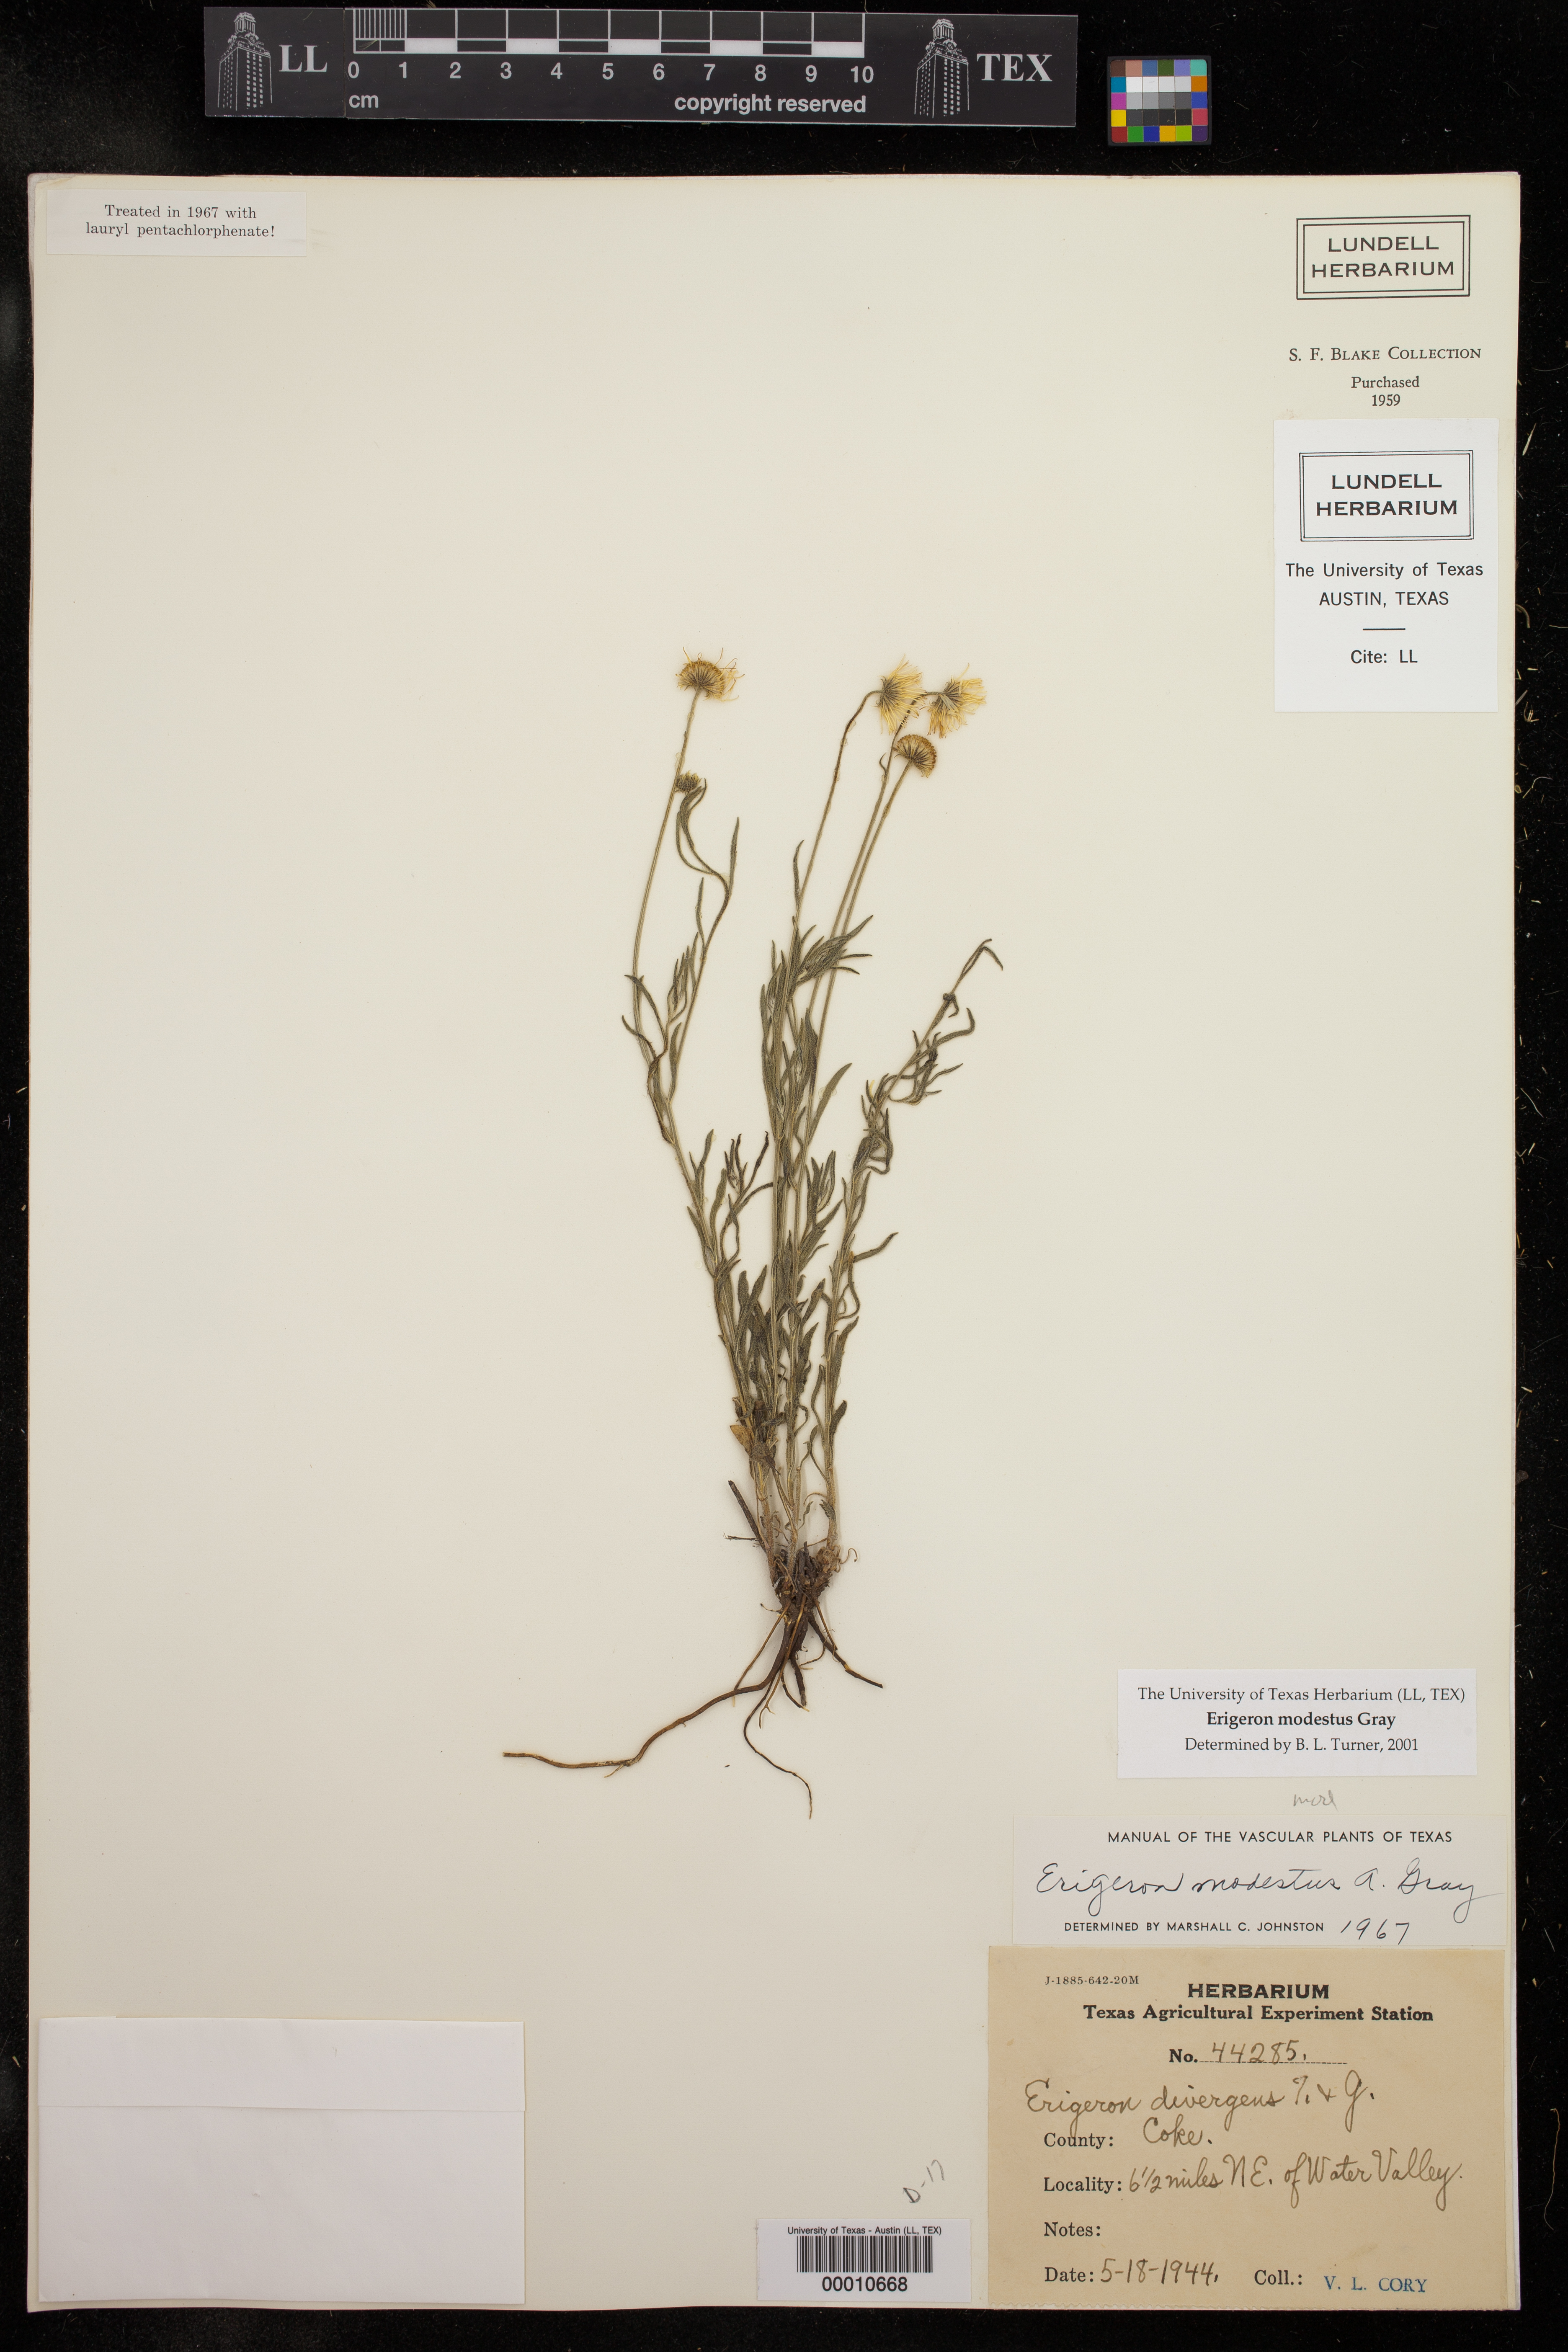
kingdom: Plantae
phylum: Tracheophyta
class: Magnoliopsida
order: Asterales
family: Asteraceae
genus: Erigeron
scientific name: Erigeron modestus
